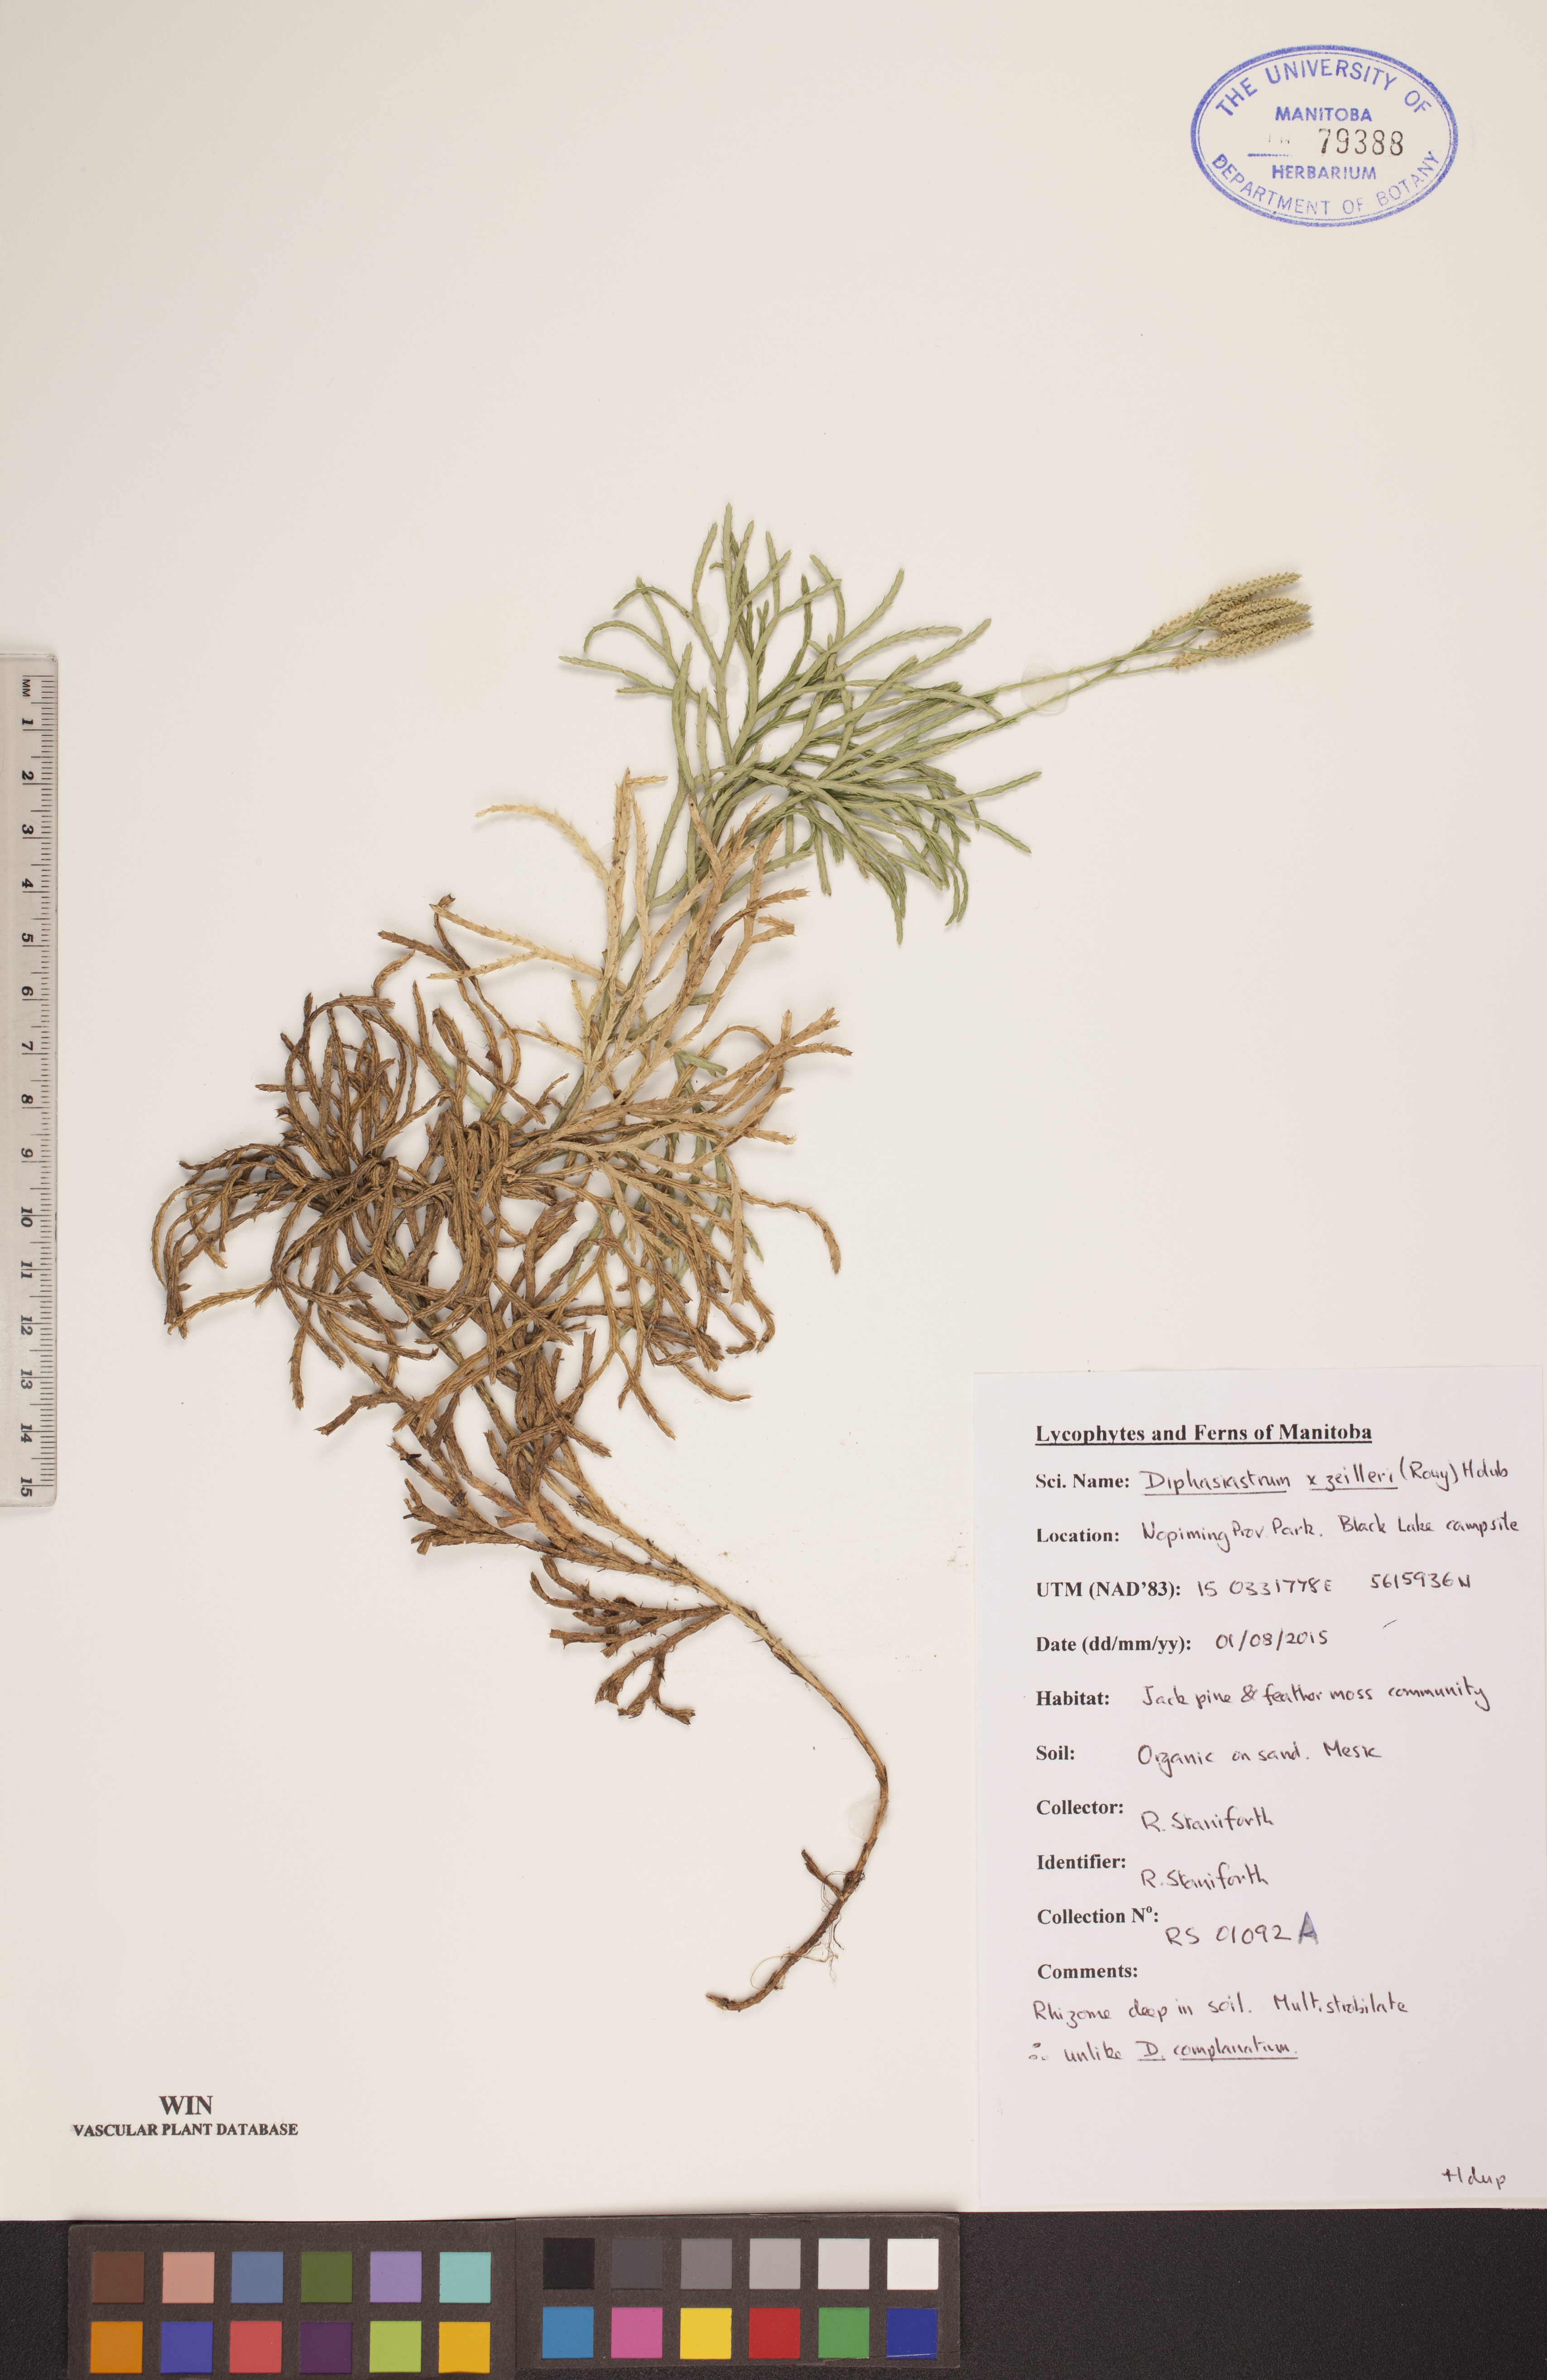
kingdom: Plantae
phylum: Tracheophyta
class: Lycopodiopsida
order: Lycopodiales
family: Lycopodiaceae
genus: Diphasiastrum
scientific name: Diphasiastrum zeilleri
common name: Zeiller's clubmoss
